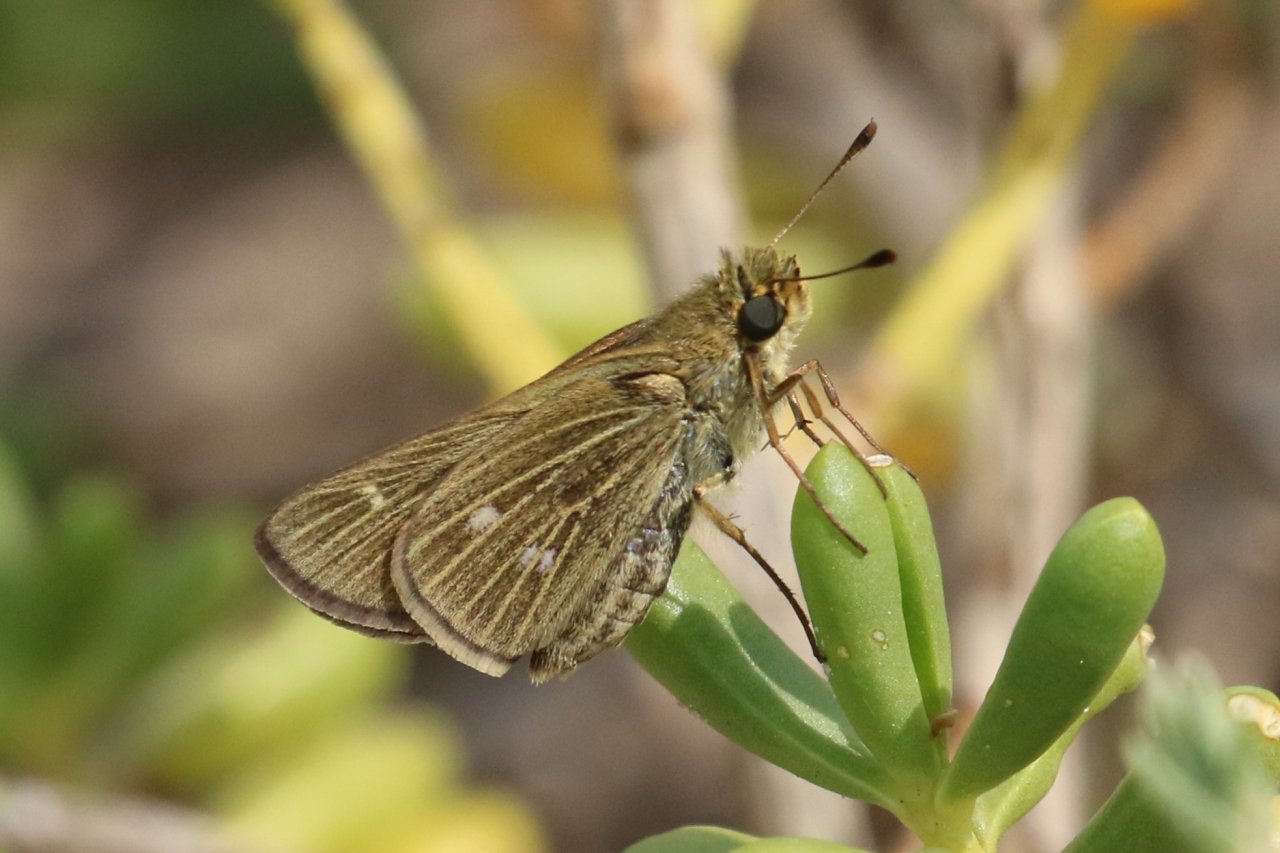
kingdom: Animalia
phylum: Arthropoda
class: Insecta
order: Lepidoptera
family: Hesperiidae
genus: Panoquina
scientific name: Panoquina panoquinoides
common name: Obscure Skipper
